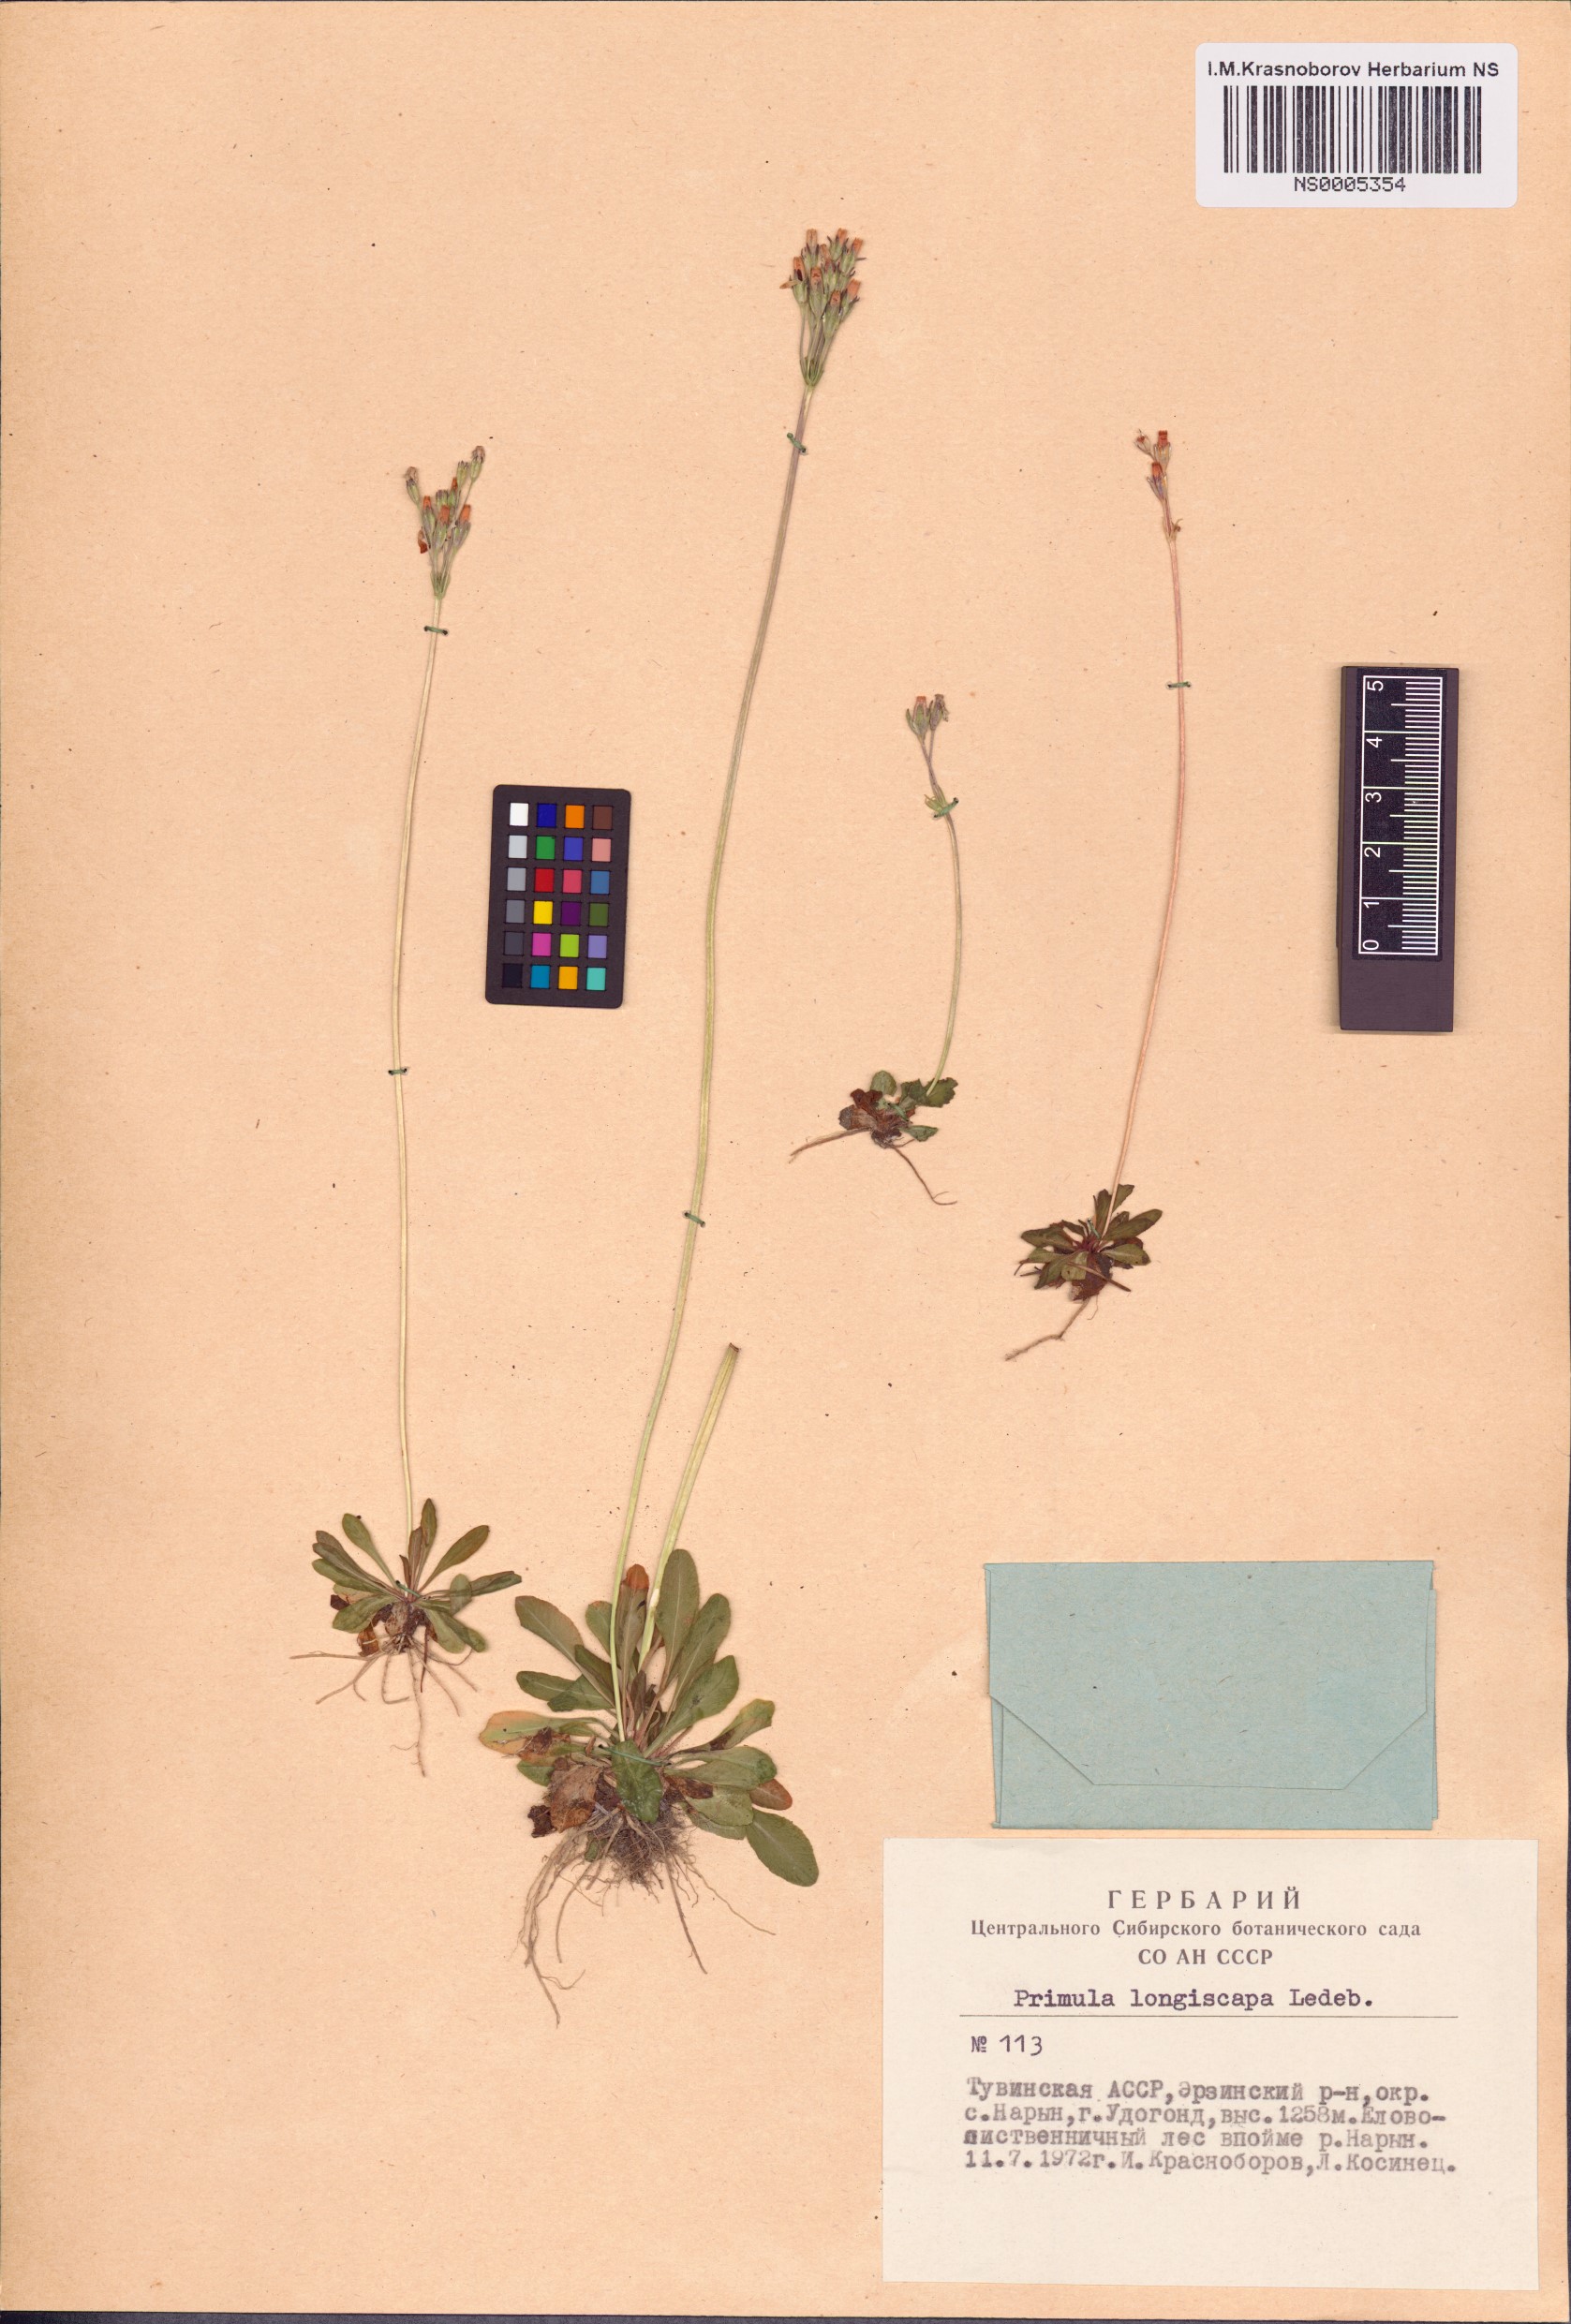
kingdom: Plantae
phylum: Tracheophyta
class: Magnoliopsida
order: Ericales
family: Primulaceae
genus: Primula
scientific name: Primula longiscapa
